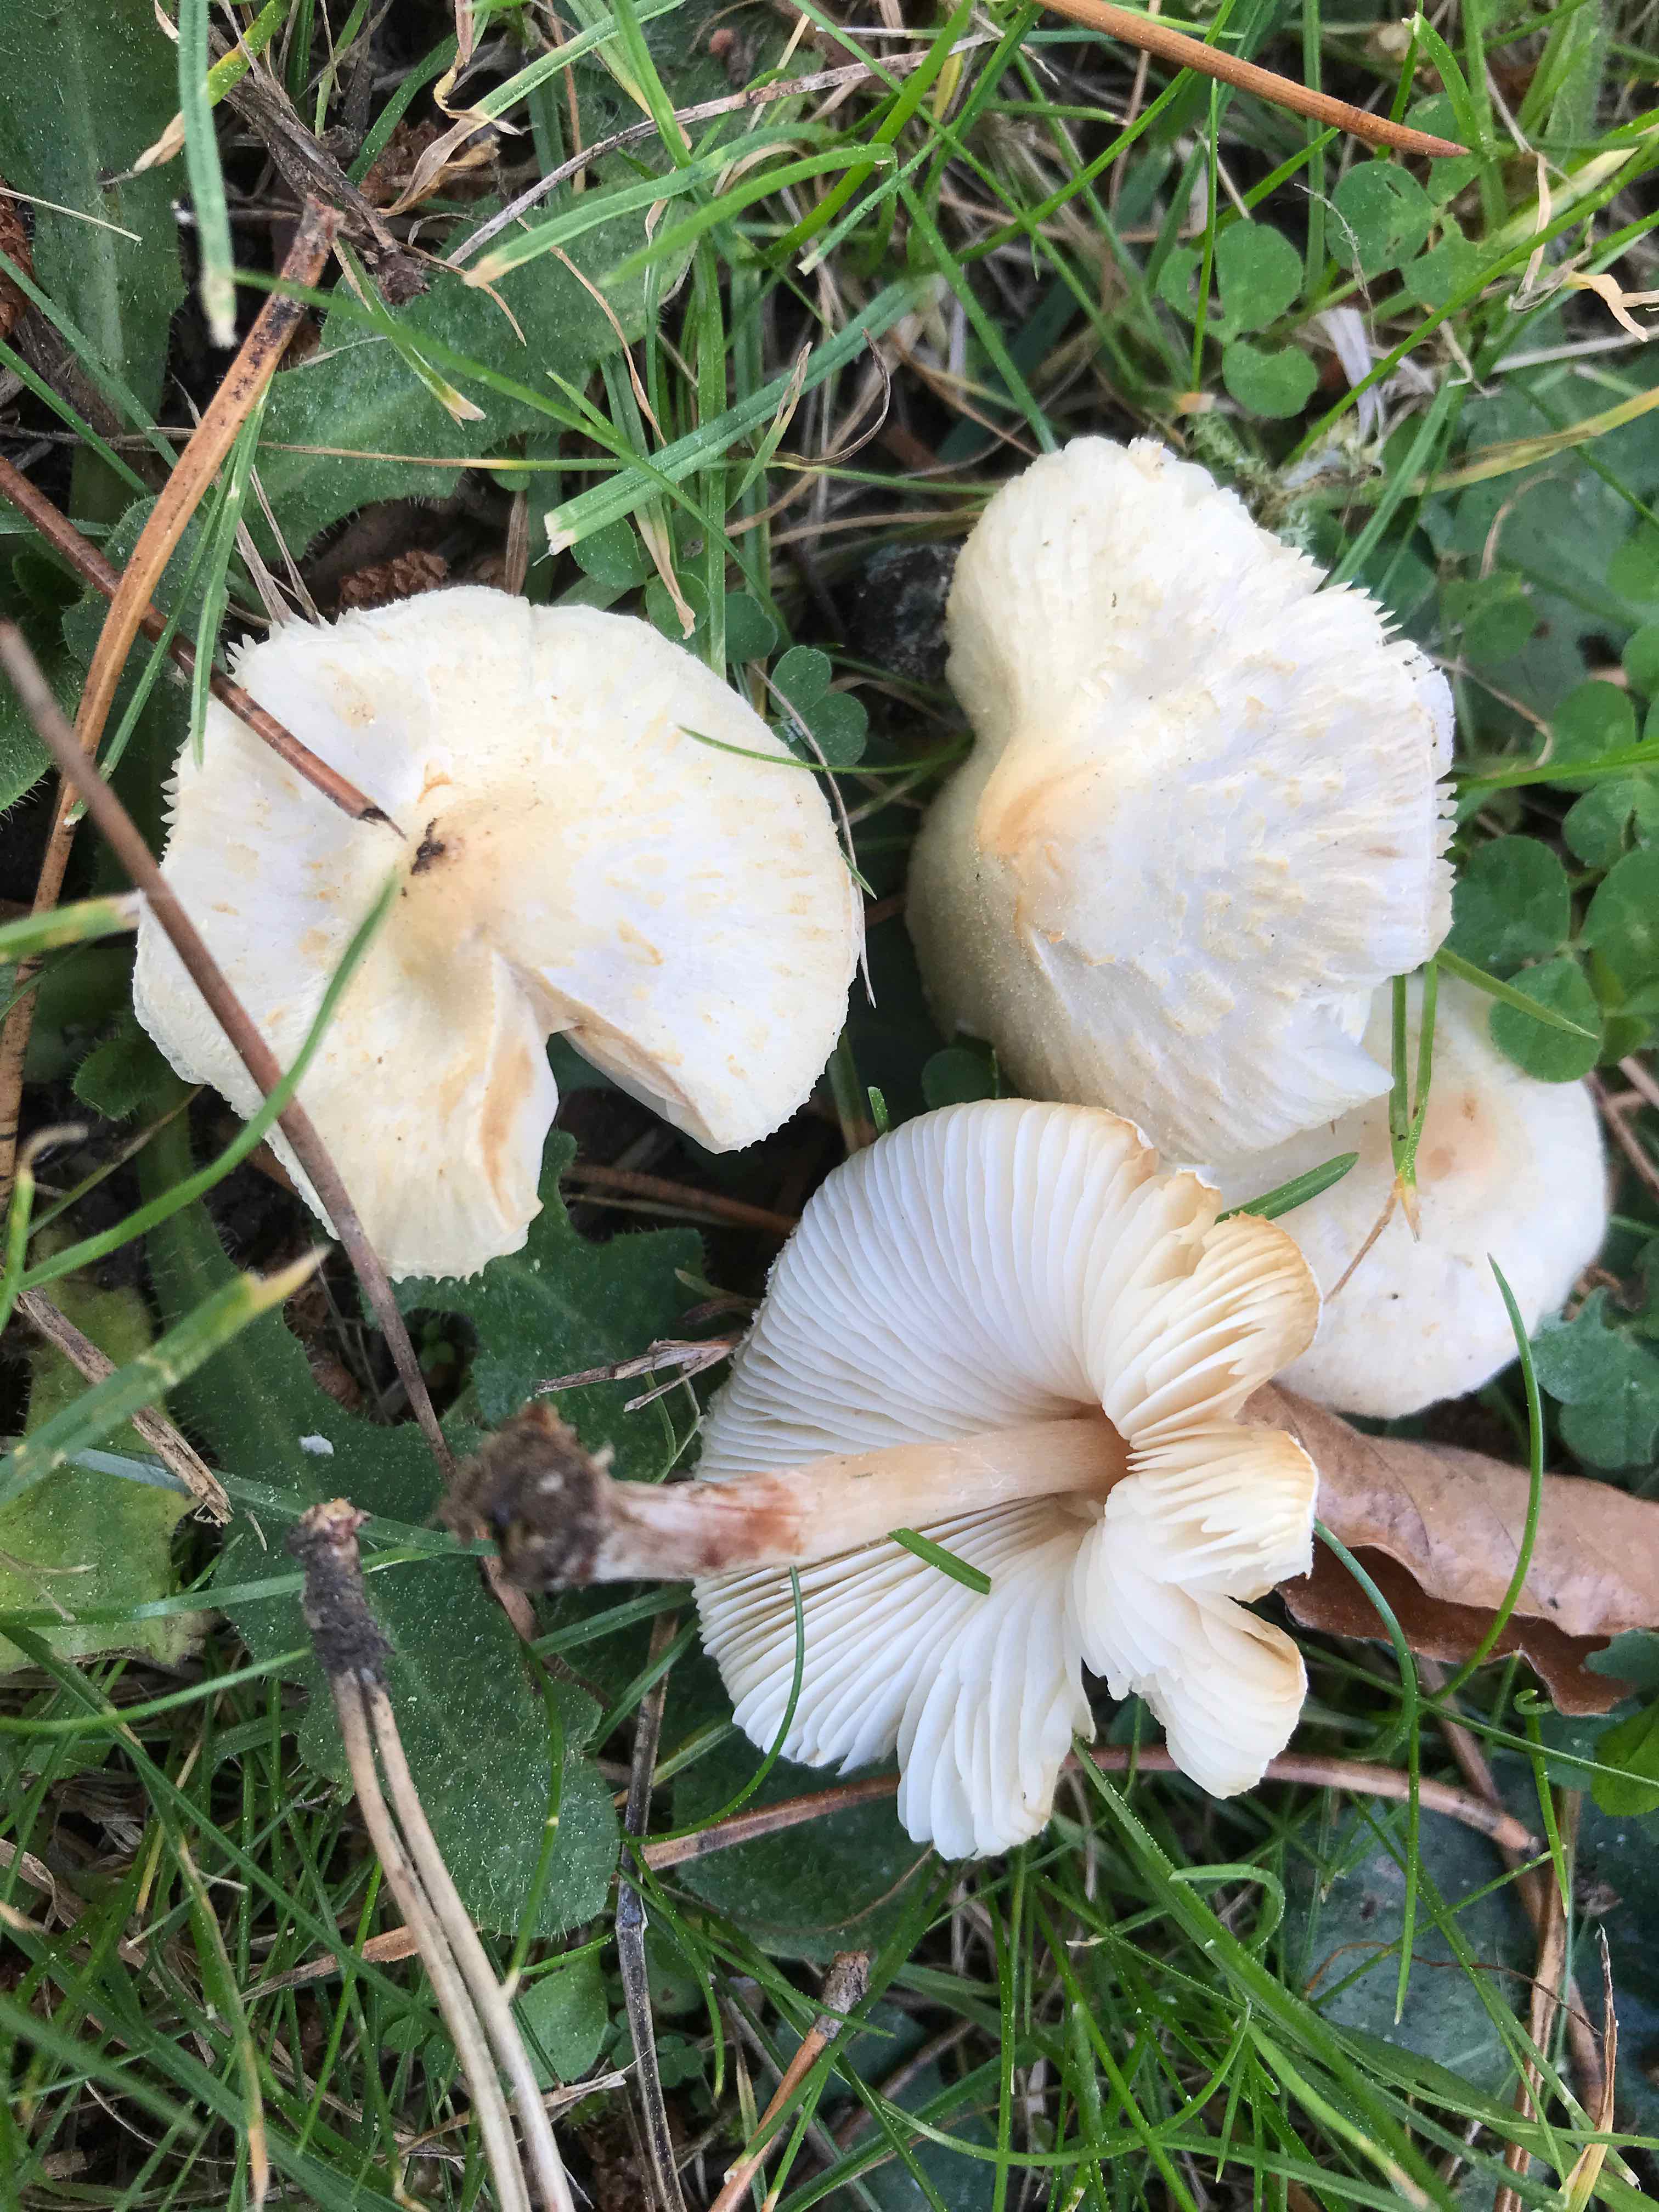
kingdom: Fungi
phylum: Basidiomycota
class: Agaricomycetes
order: Agaricales
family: Agaricaceae
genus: Lepiota
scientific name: Lepiota cristata
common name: stinkende parasolhat
